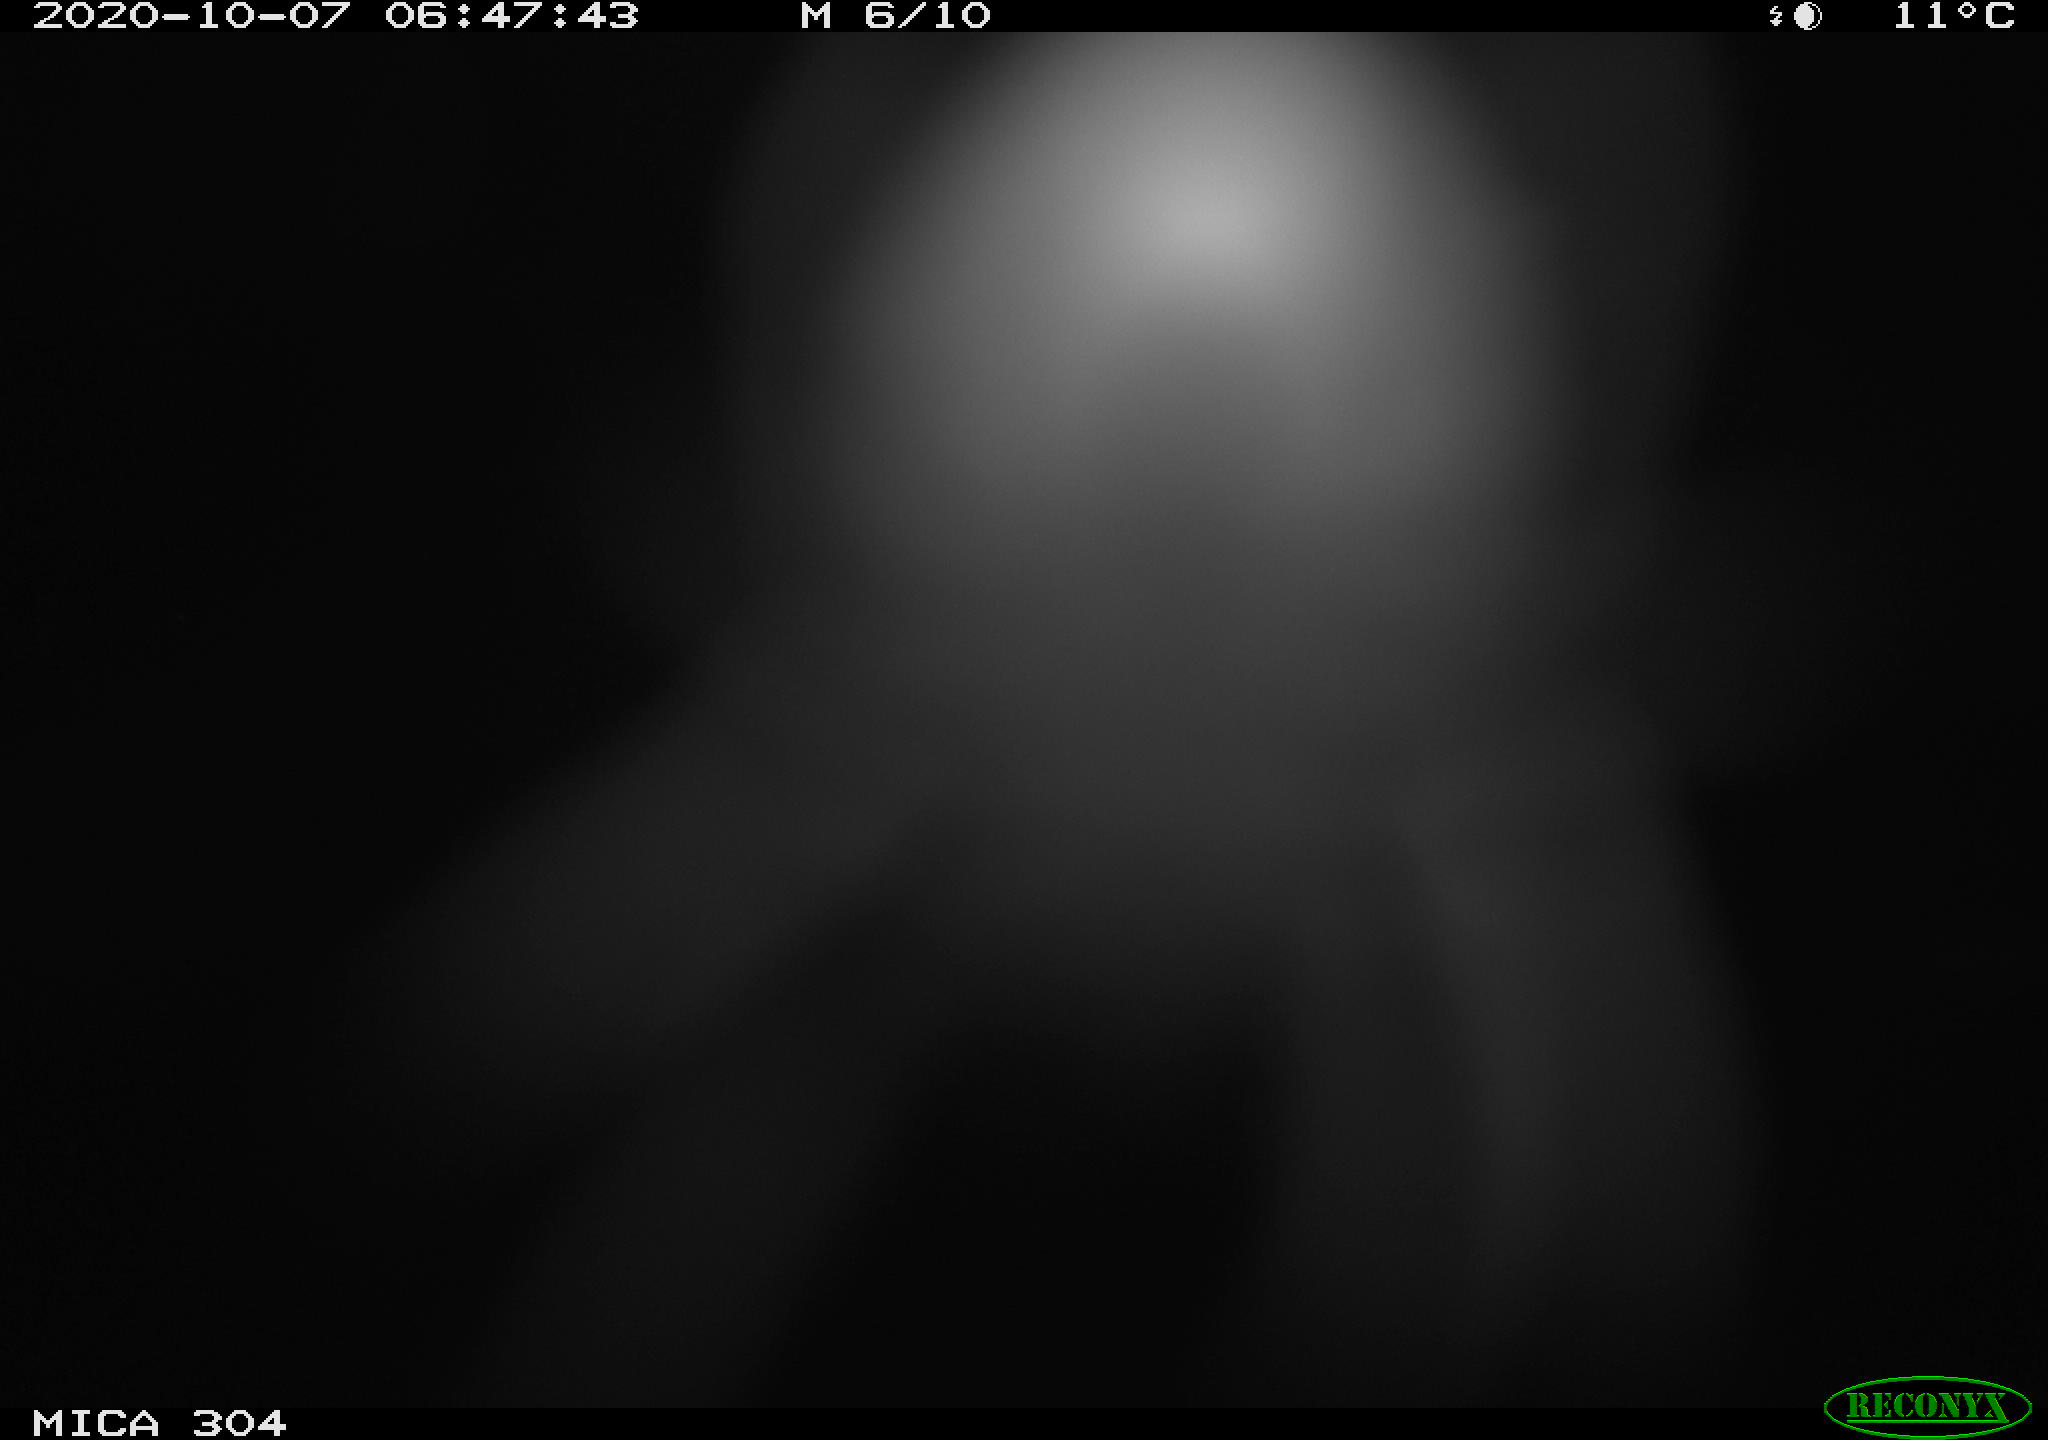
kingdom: Animalia
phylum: Chordata
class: Mammalia
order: Rodentia
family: Muridae
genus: Rattus
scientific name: Rattus norvegicus
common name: Brown rat
